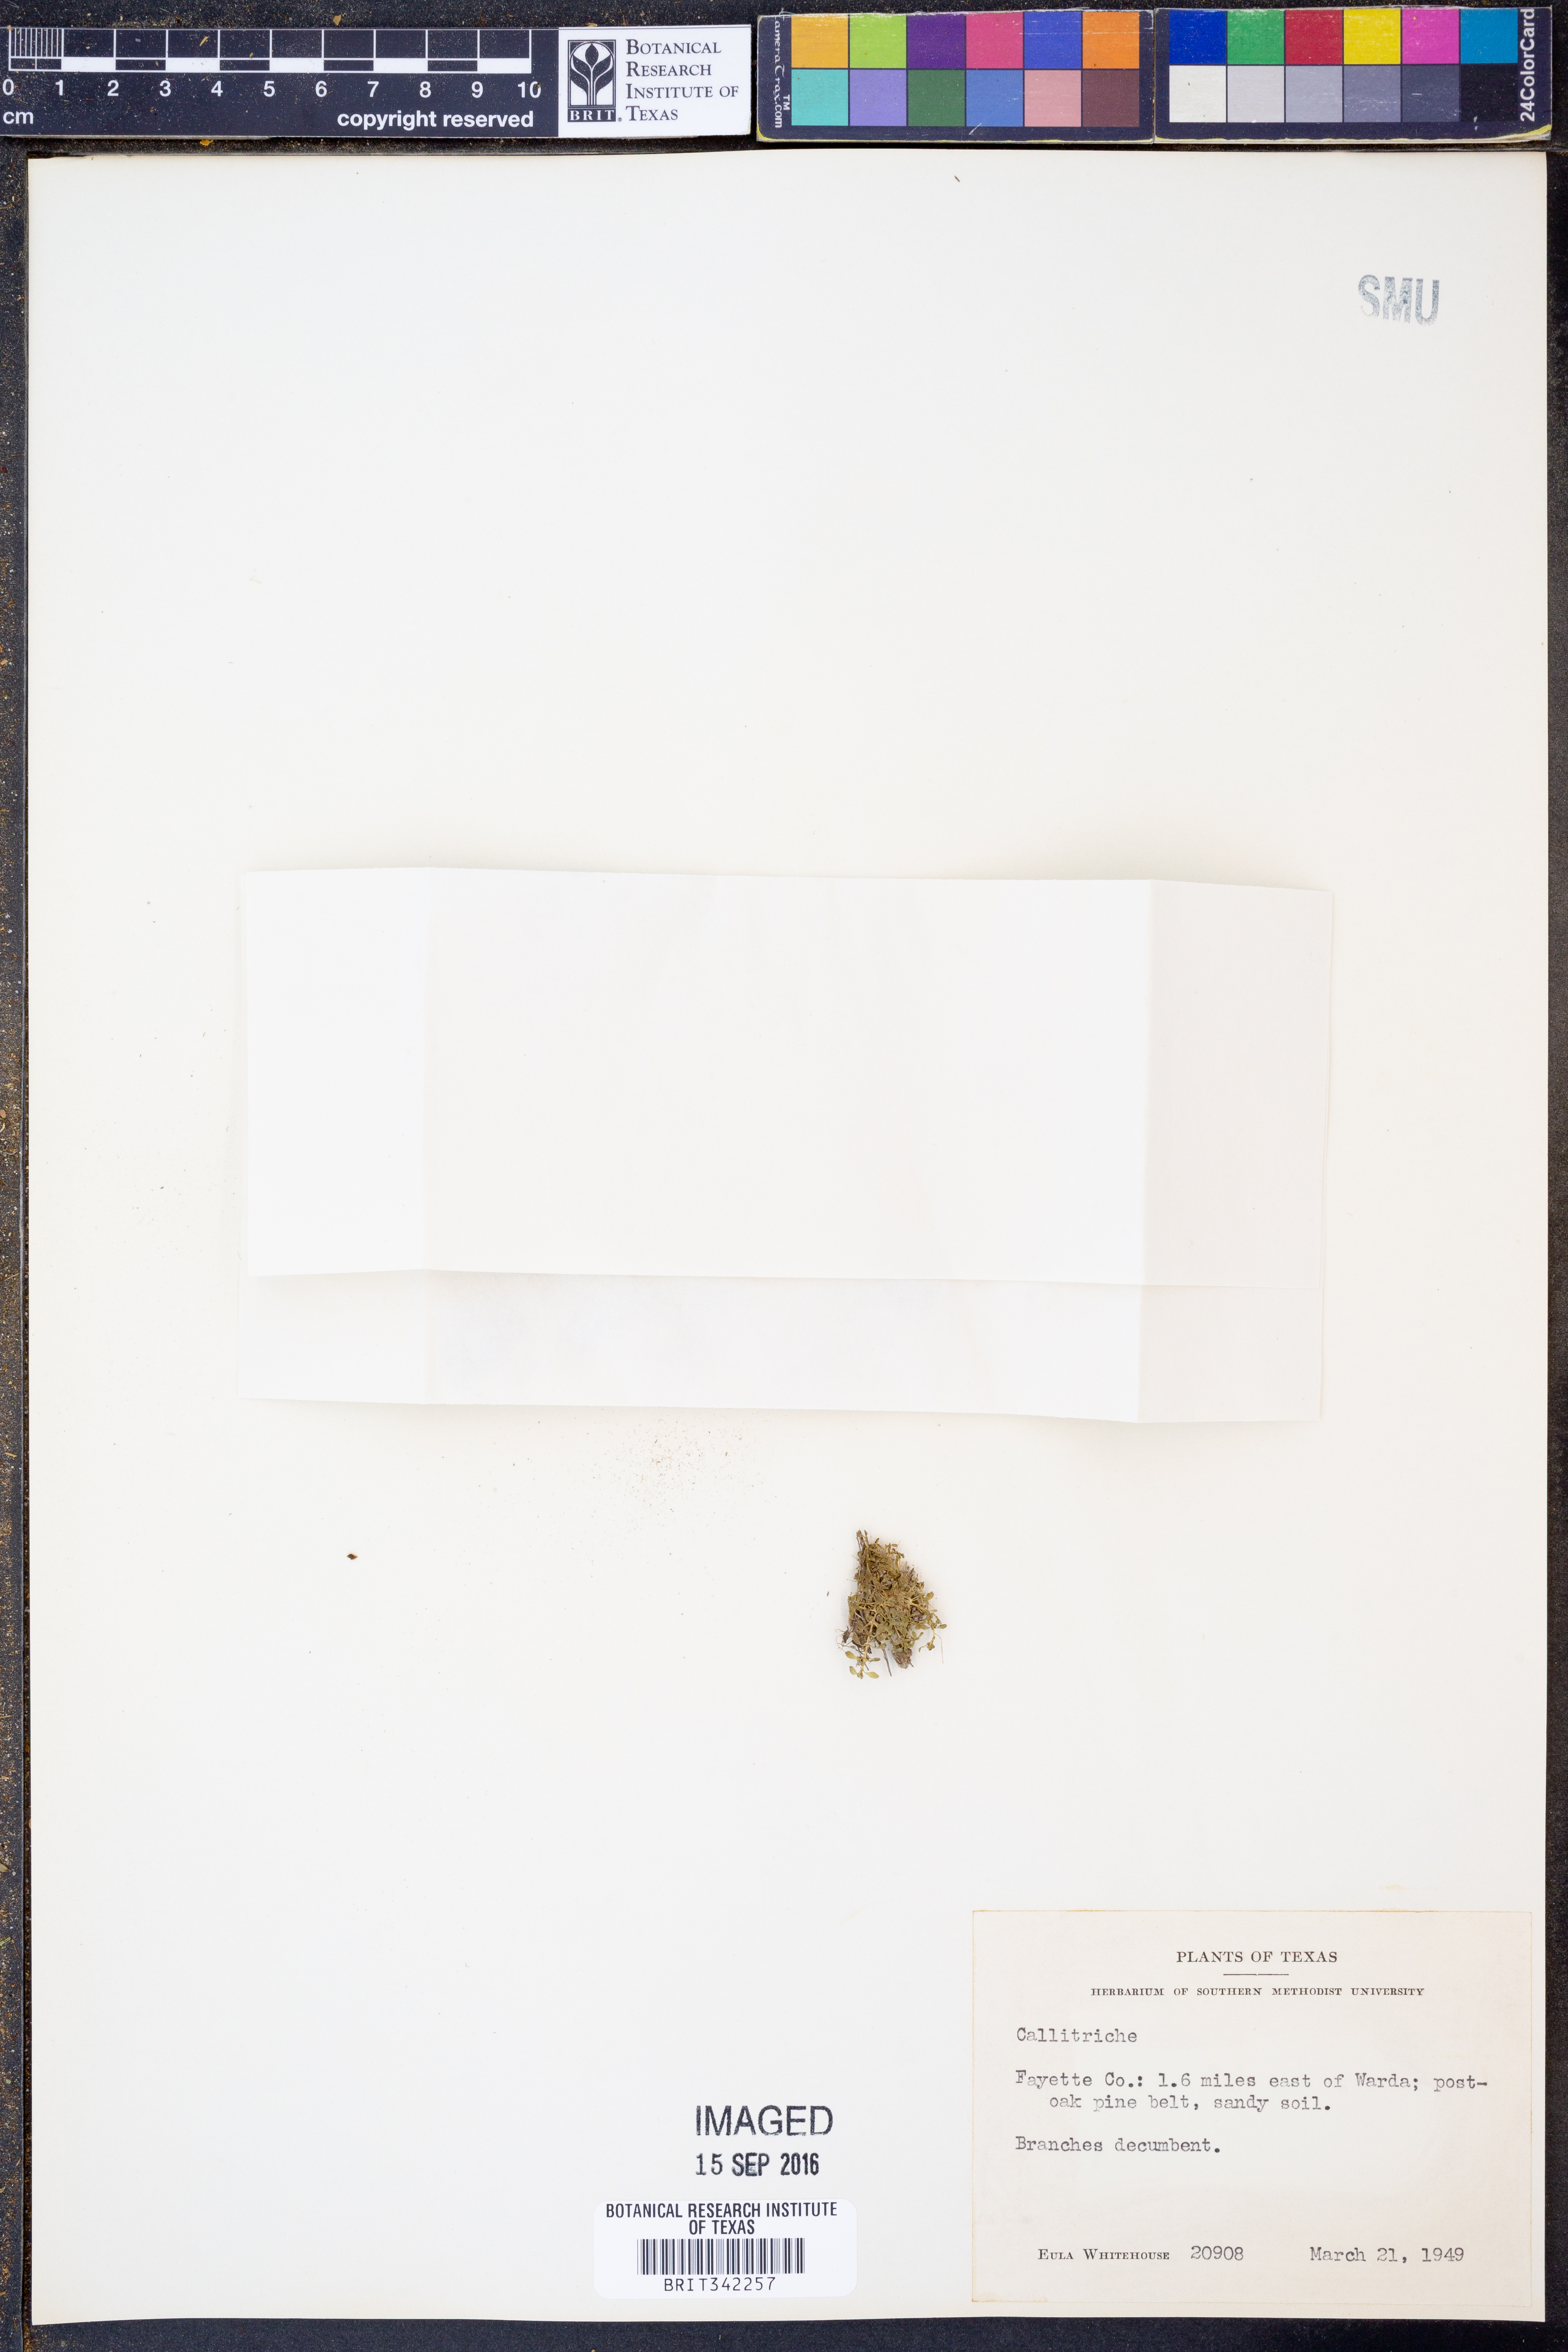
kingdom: Plantae
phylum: Tracheophyta
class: Magnoliopsida
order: Lamiales
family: Plantaginaceae
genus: Callitriche
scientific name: Callitriche
